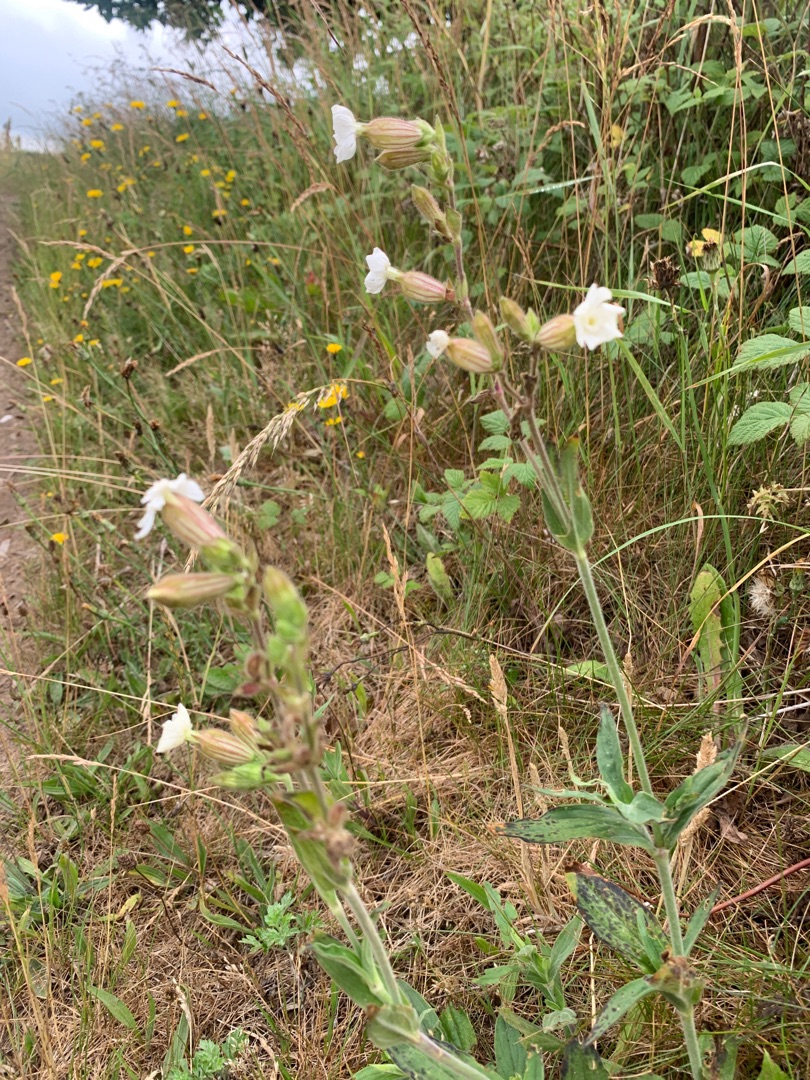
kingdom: Plantae
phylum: Tracheophyta
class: Magnoliopsida
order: Caryophyllales
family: Caryophyllaceae
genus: Silene
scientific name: Silene latifolia
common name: Aftenpragtstjerne
